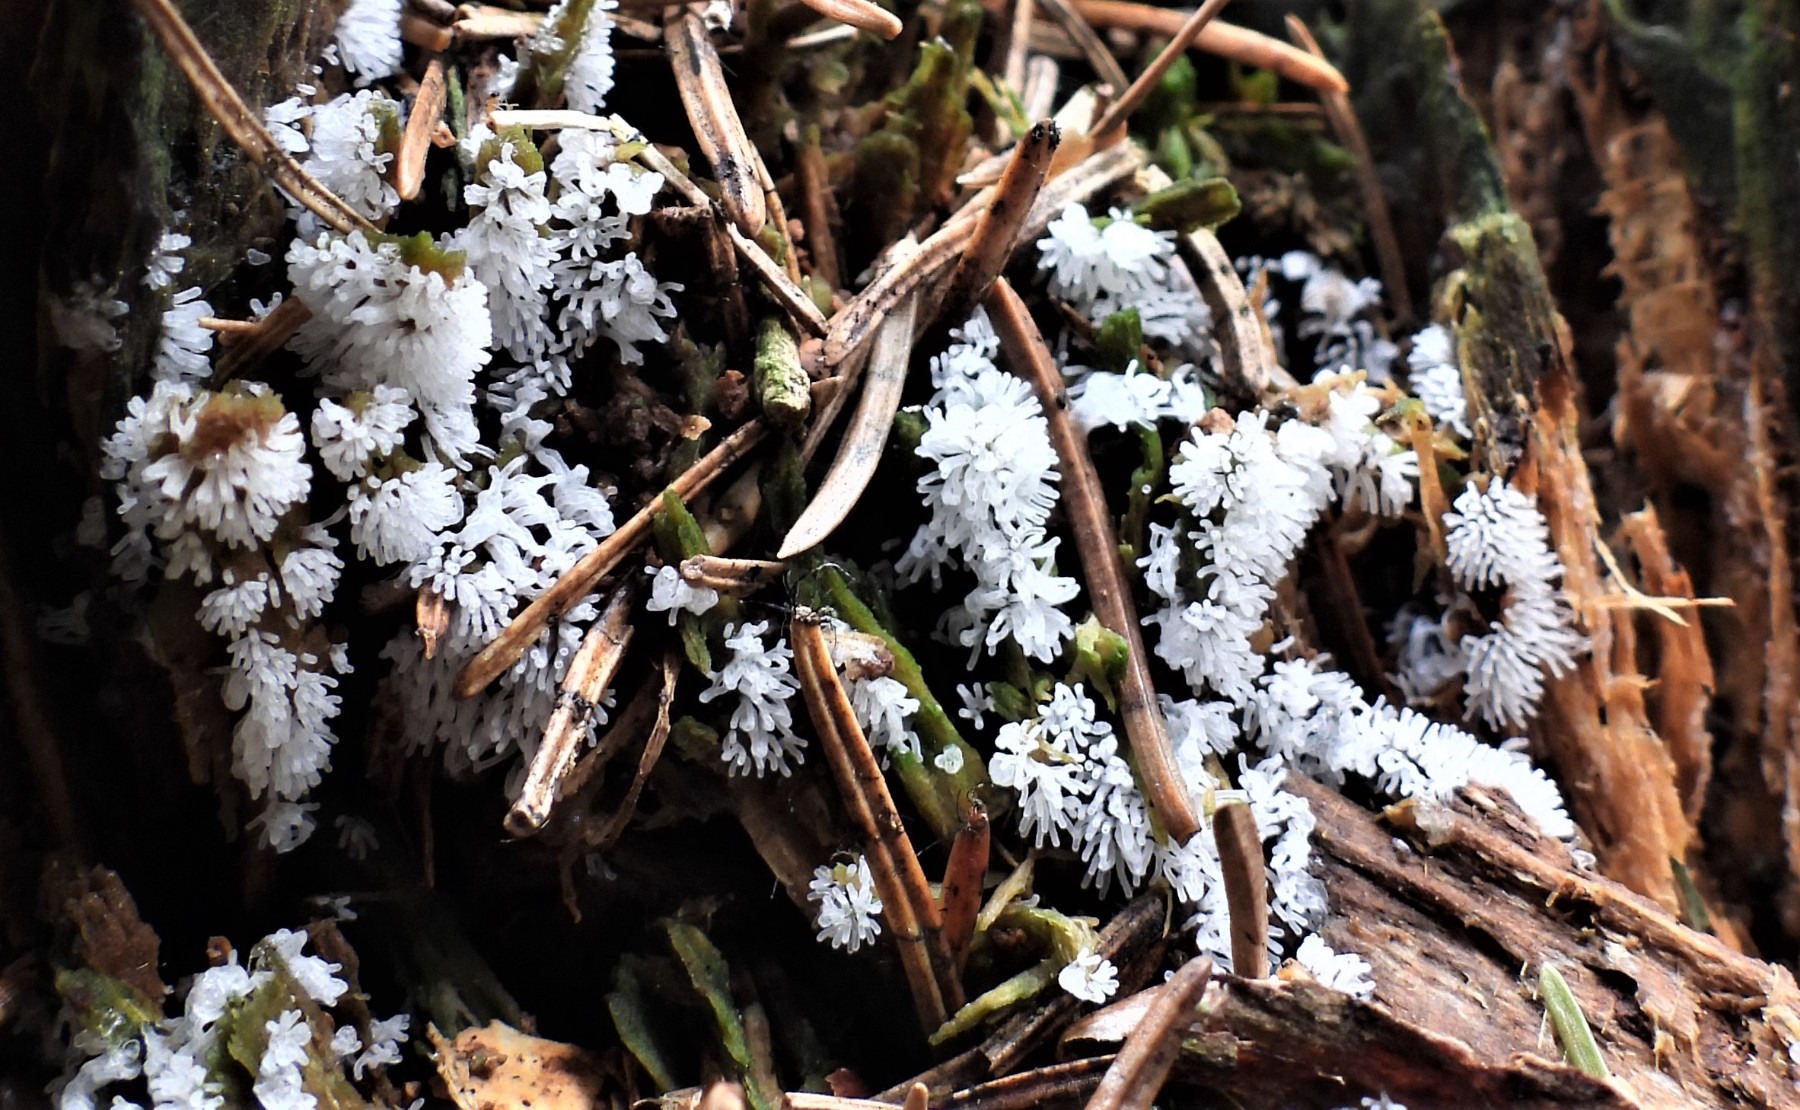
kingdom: Protozoa
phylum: Mycetozoa
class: Protosteliomycetes
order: Ceratiomyxales
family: Ceratiomyxaceae
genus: Ceratiomyxa
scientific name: Ceratiomyxa fruticulosa
